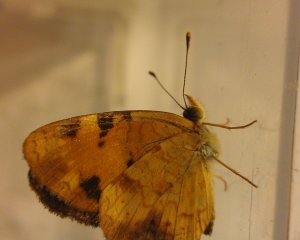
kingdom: Animalia
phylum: Arthropoda
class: Insecta
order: Lepidoptera
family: Nymphalidae
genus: Phyciodes
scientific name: Phyciodes tharos
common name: Northern Crescent
